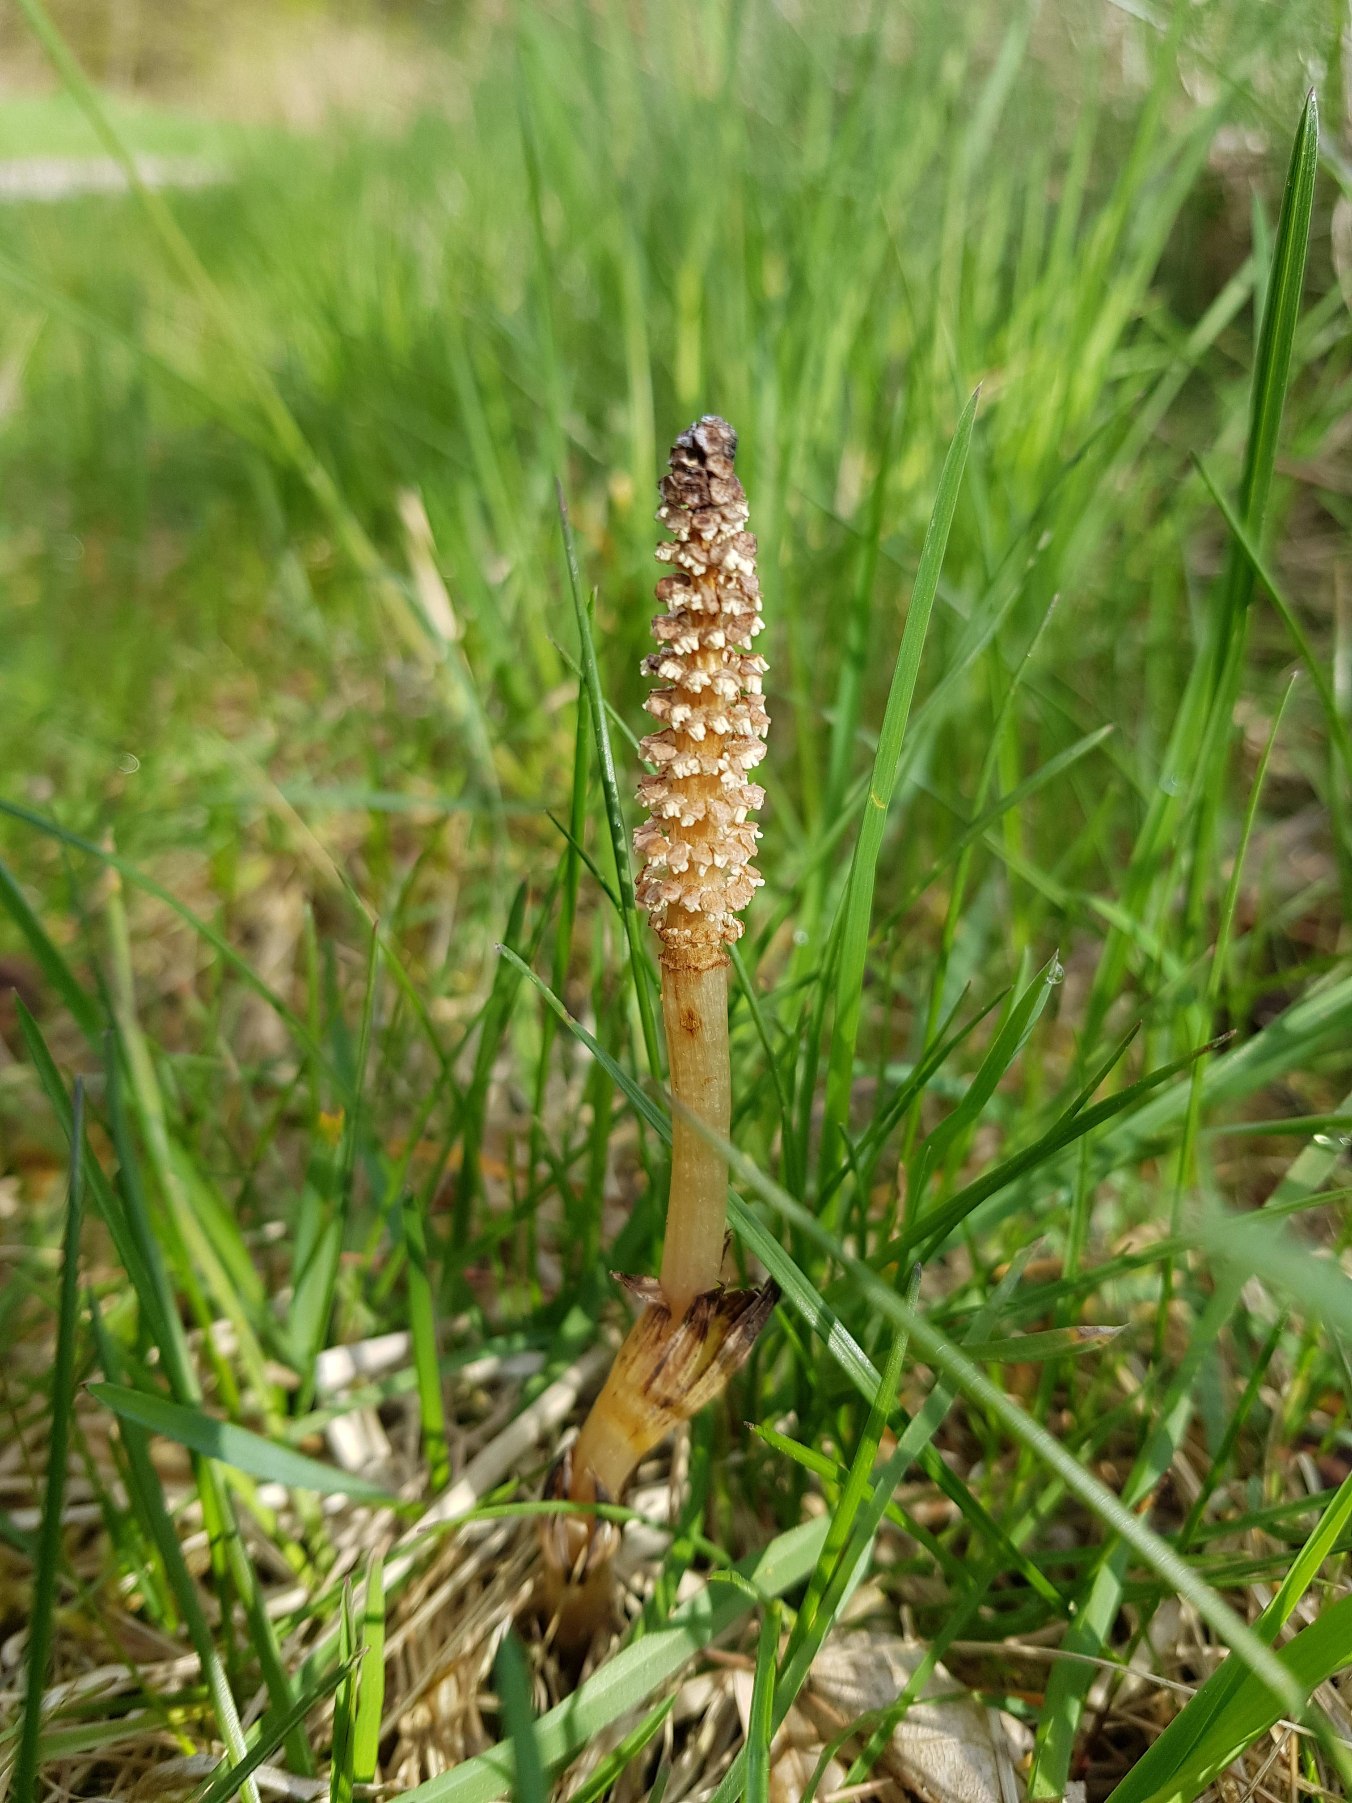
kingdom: Plantae
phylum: Tracheophyta
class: Polypodiopsida
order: Equisetales
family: Equisetaceae
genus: Equisetum
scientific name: Equisetum arvense
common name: Ager-padderok
